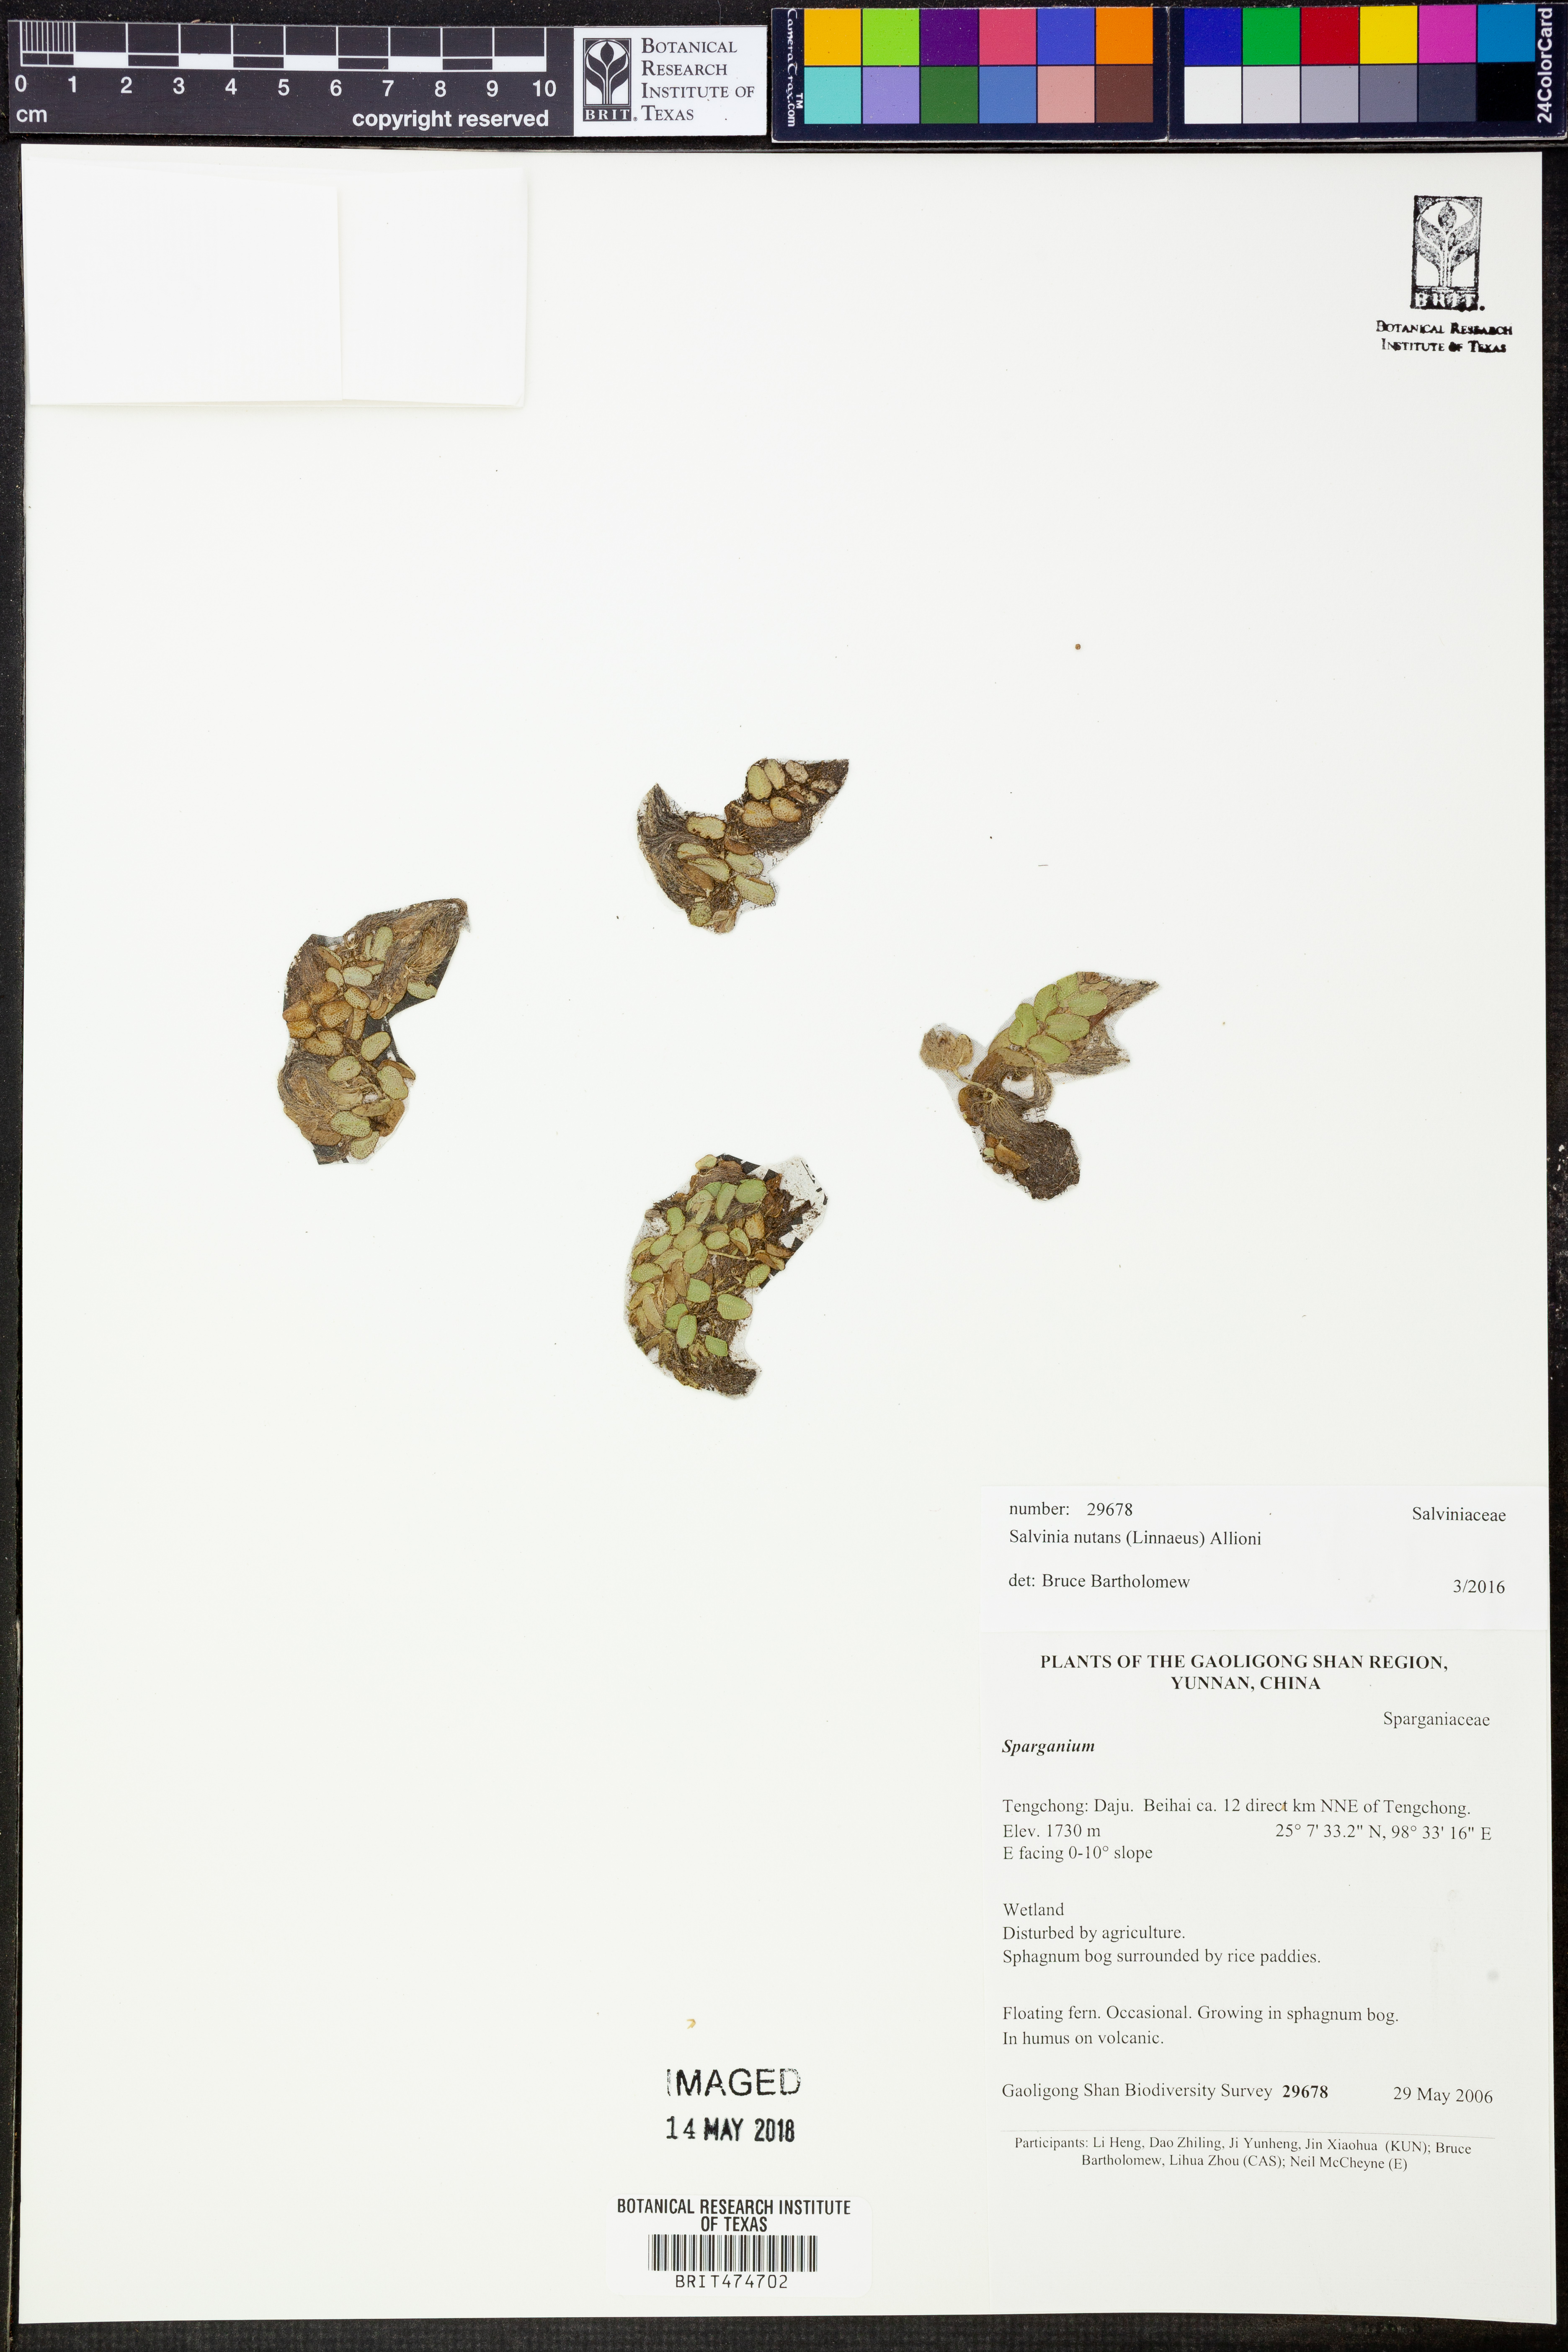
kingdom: Plantae
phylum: Tracheophyta
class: Polypodiopsida
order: Salviniales
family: Salviniaceae
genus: Salvinia
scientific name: Salvinia natans
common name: Floating fern
